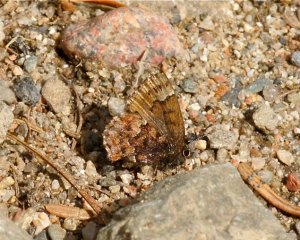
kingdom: Animalia
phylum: Arthropoda
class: Insecta
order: Lepidoptera
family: Lycaenidae
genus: Incisalia
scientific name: Incisalia niphon
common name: Eastern Pine Elfin
